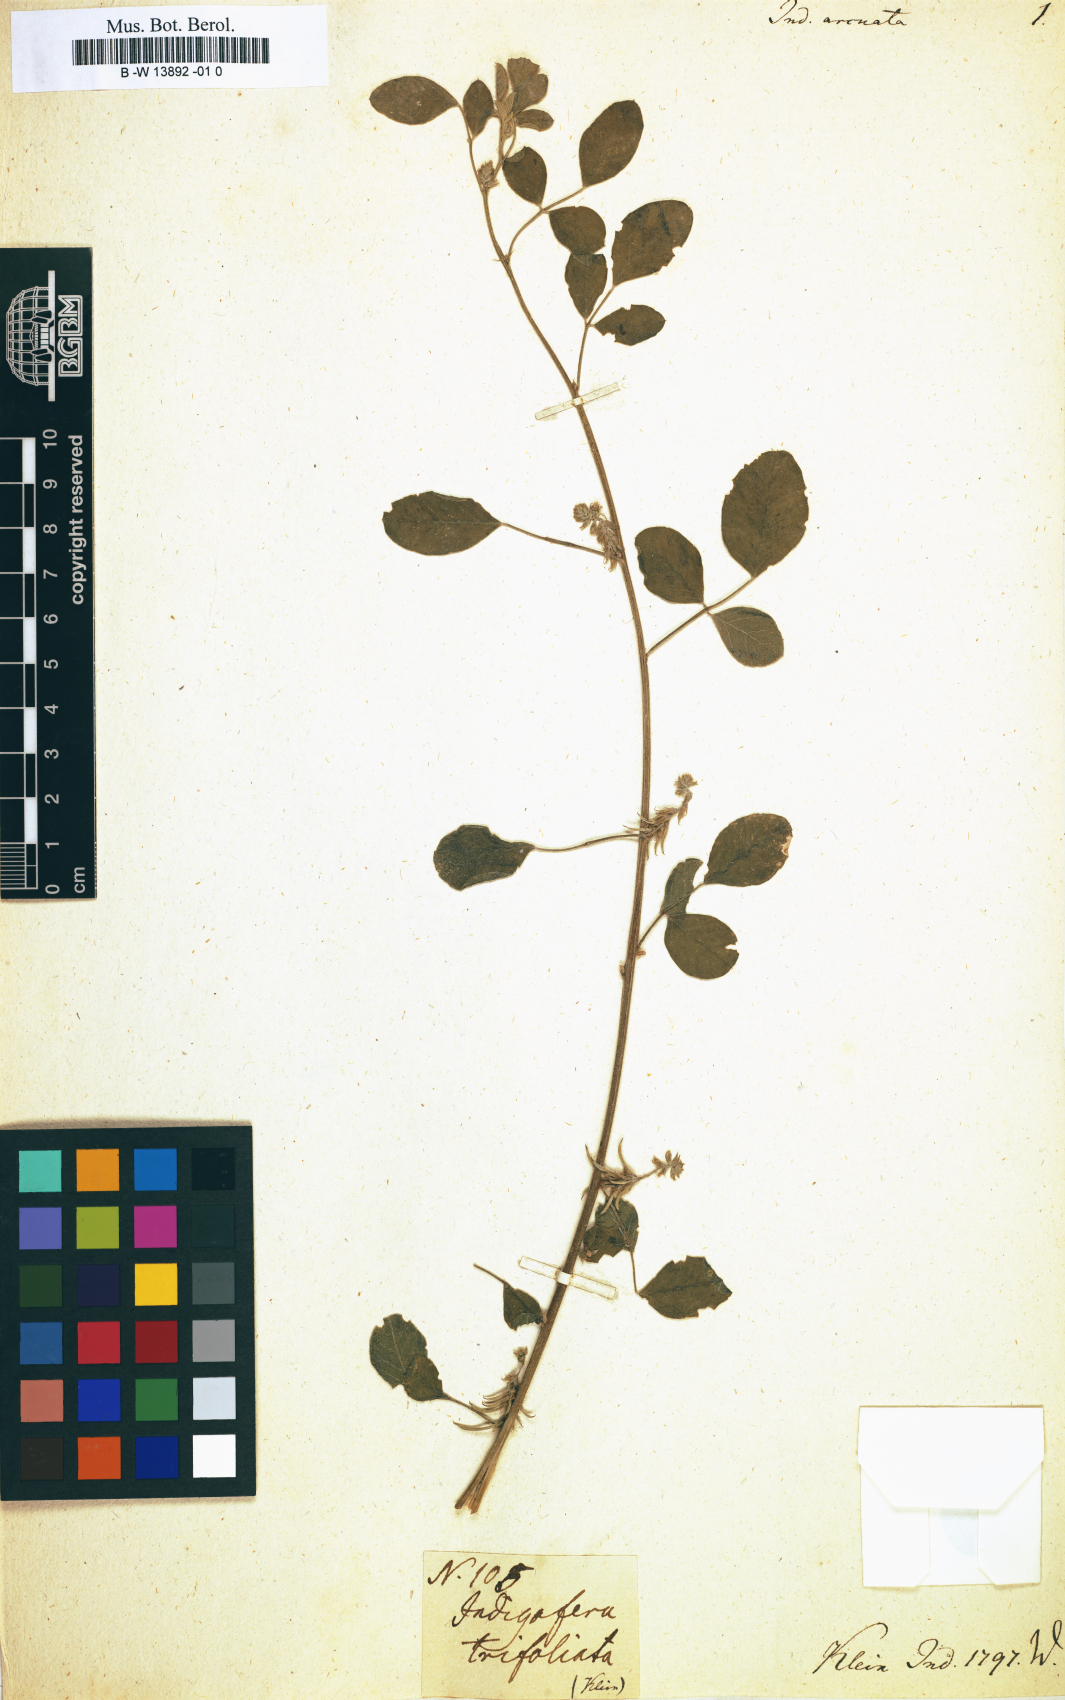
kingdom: Plantae
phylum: Tracheophyta
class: Magnoliopsida
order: Fabales
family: Fabaceae
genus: Indigofera
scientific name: Indigofera trita
